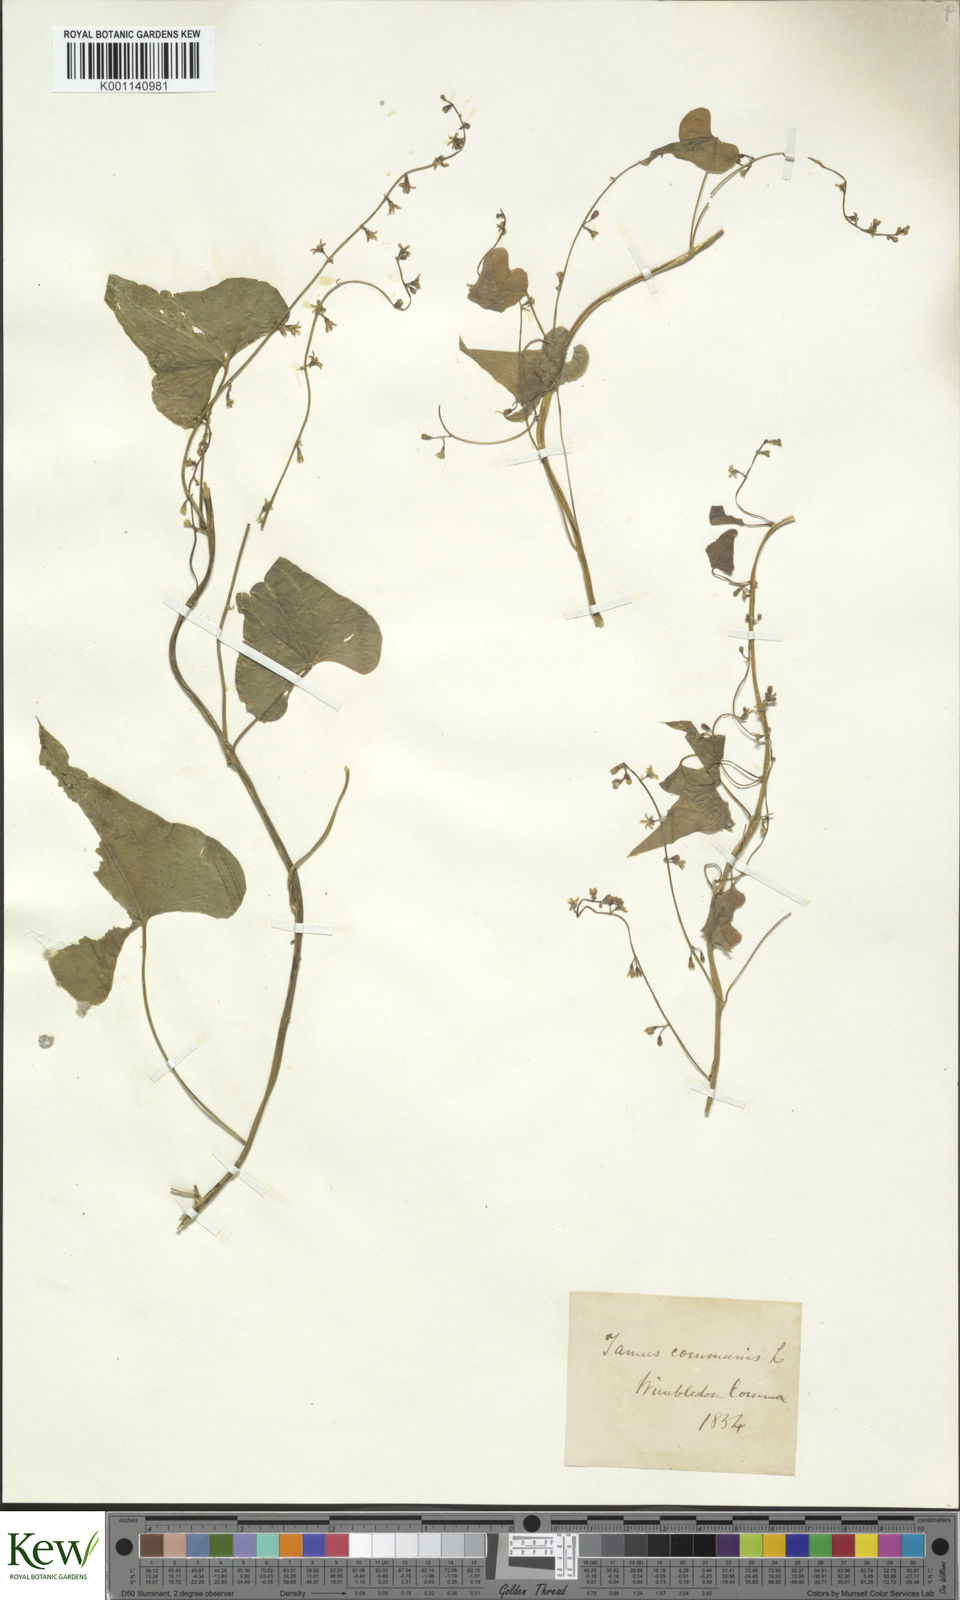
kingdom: Plantae
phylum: Tracheophyta
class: Liliopsida
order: Dioscoreales
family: Dioscoreaceae
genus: Dioscorea
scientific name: Dioscorea communis
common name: Black-bindweed
